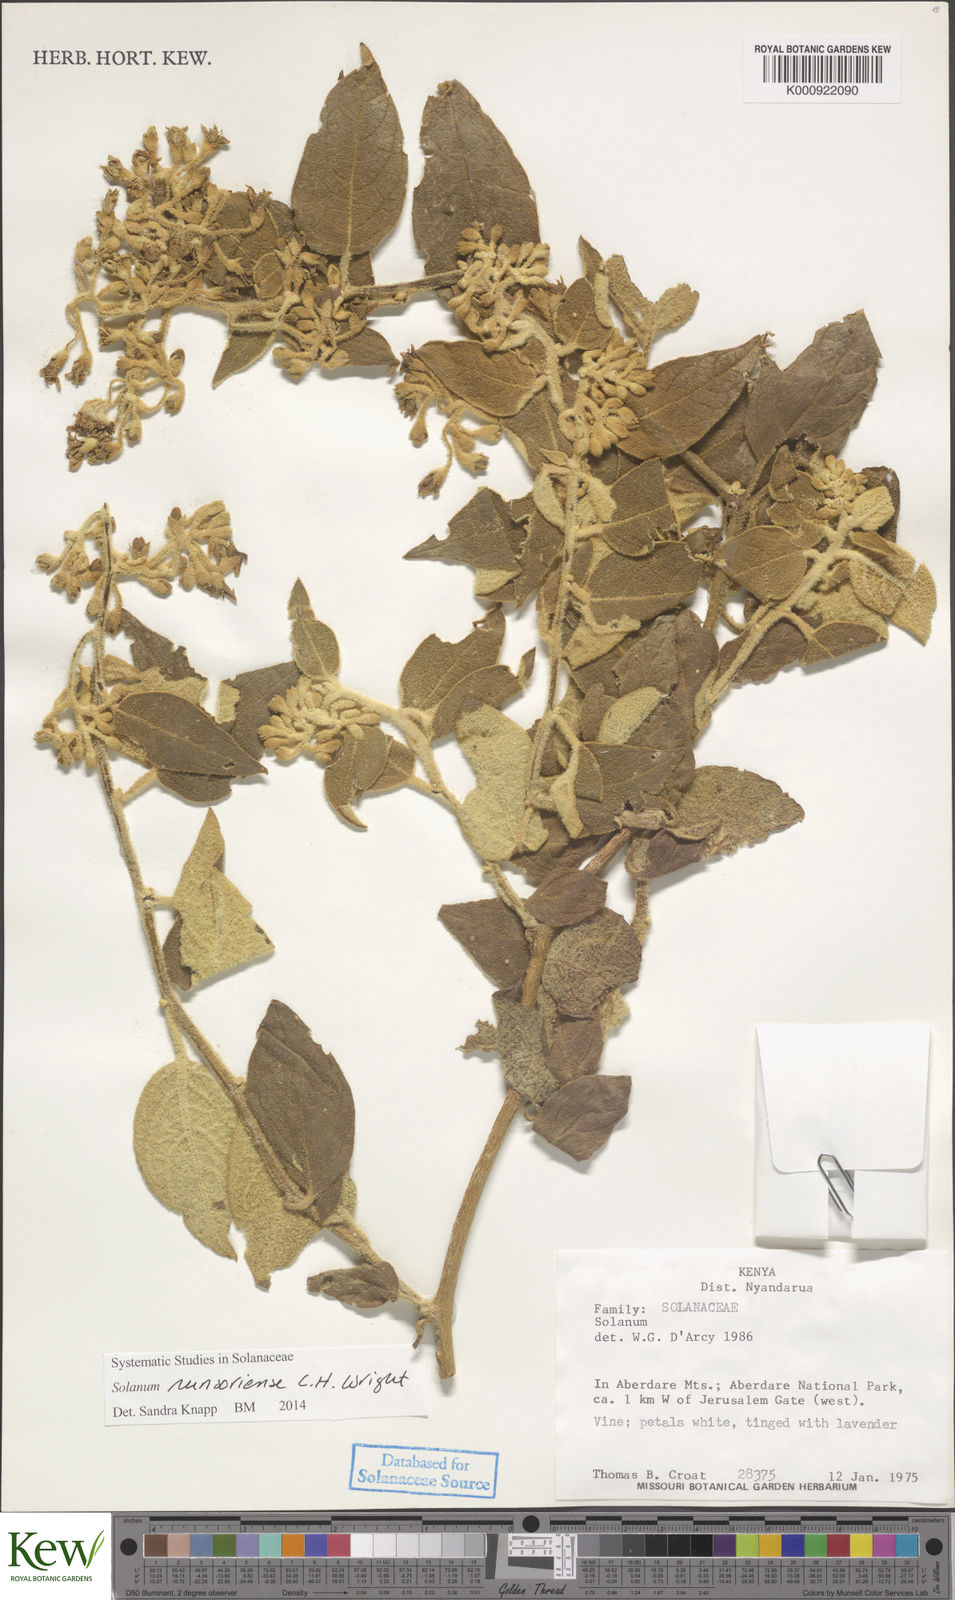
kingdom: Plantae
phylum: Tracheophyta
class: Magnoliopsida
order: Solanales
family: Solanaceae
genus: Solanum
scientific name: Solanum runsoriense
